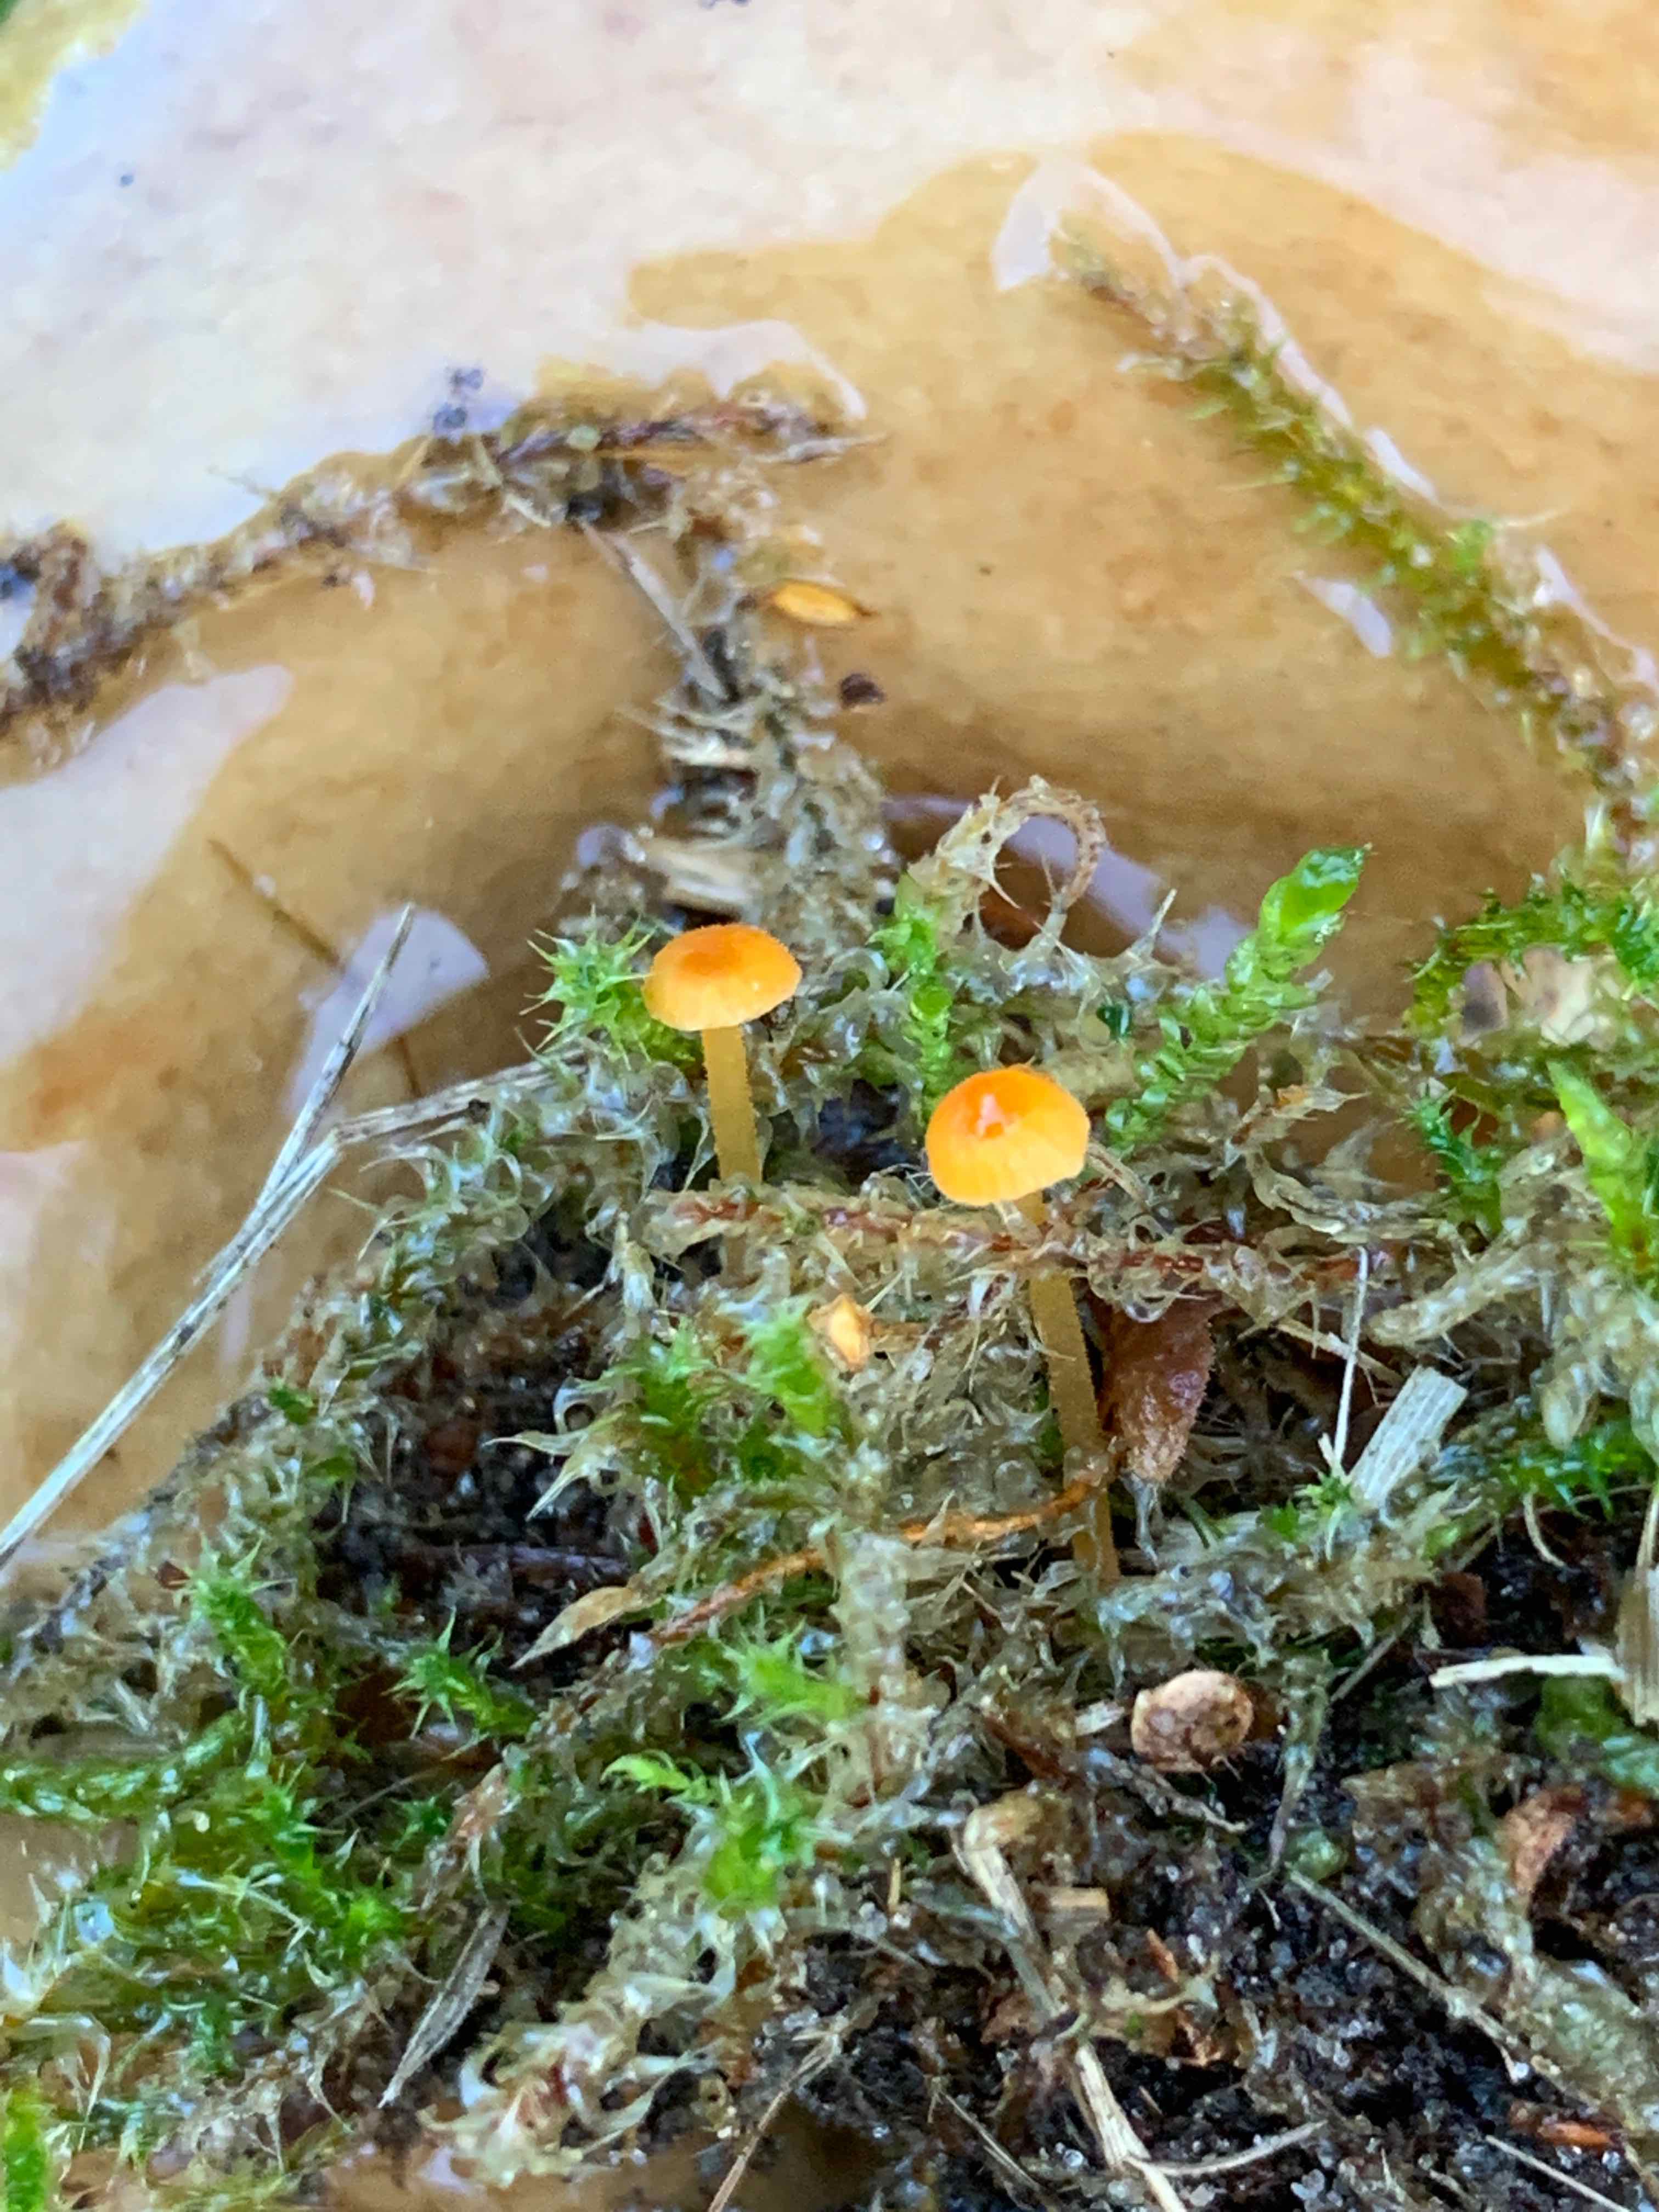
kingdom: Fungi
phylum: Basidiomycota
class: Agaricomycetes
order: Hymenochaetales
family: Rickenellaceae
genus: Rickenella
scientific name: Rickenella fibula
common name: orange mosnavlehat
